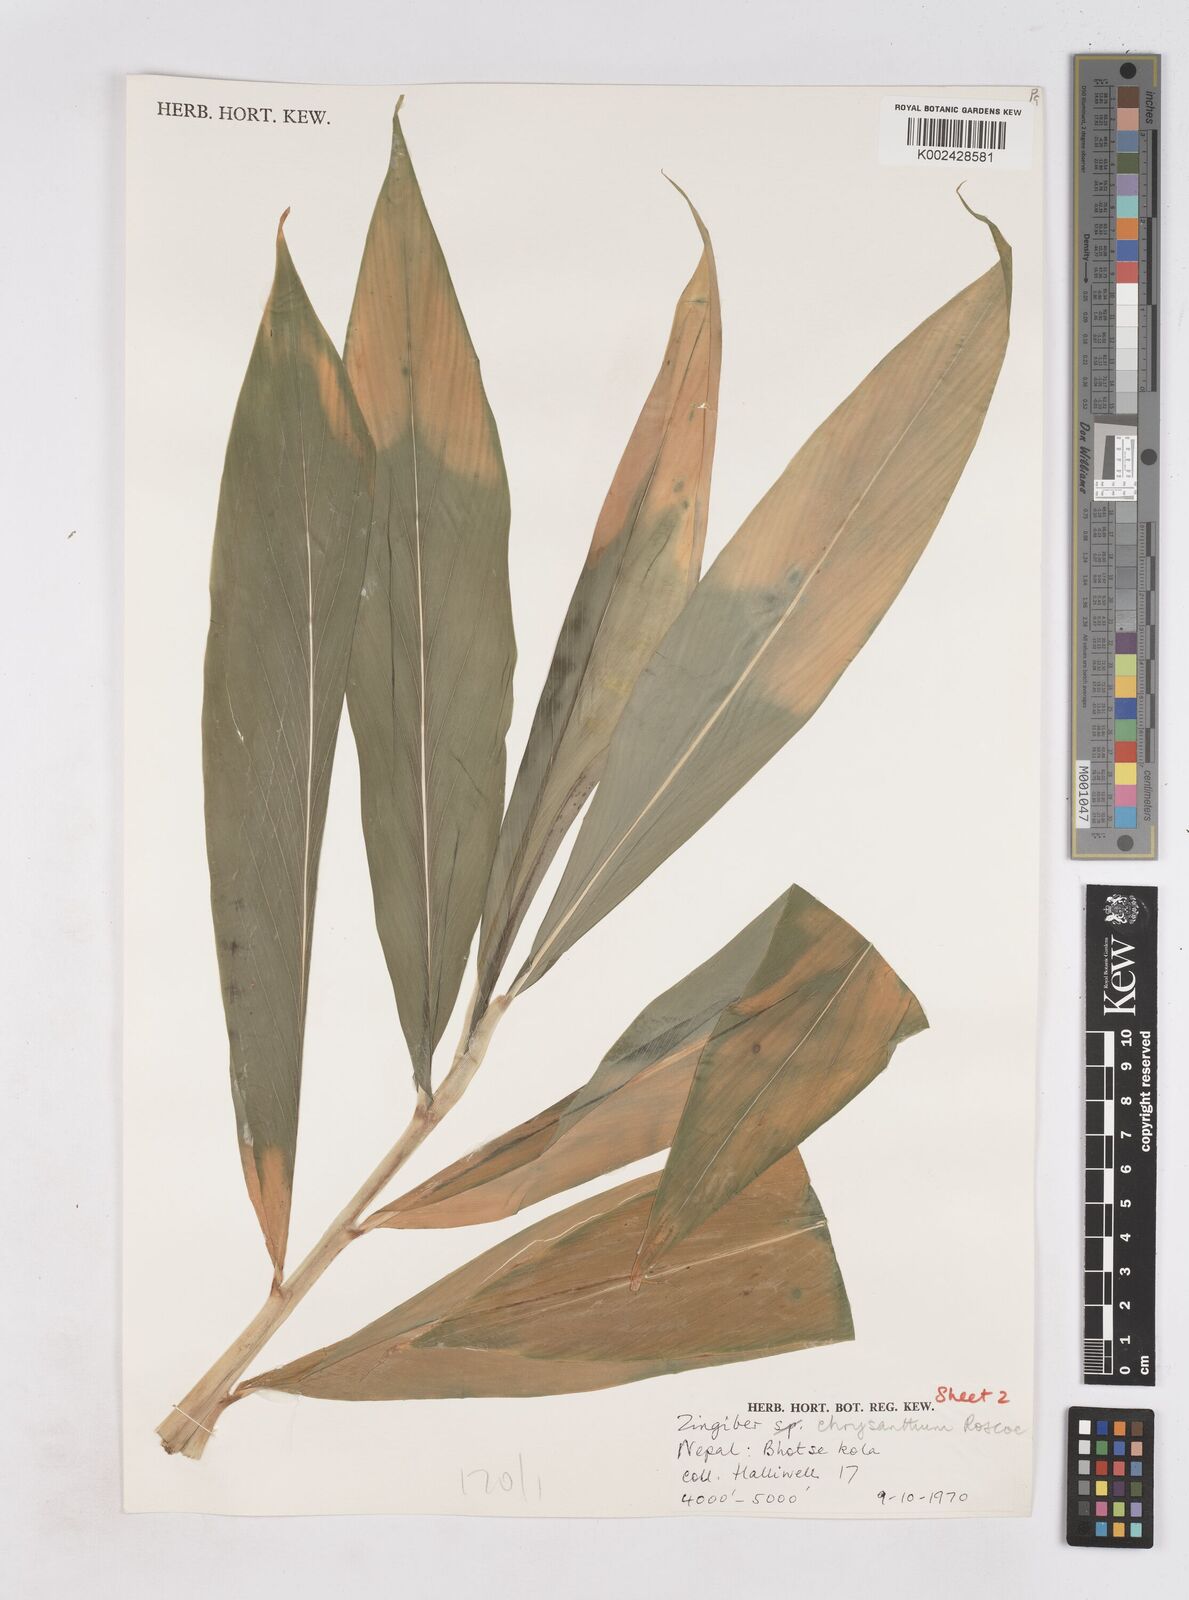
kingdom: Plantae
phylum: Tracheophyta
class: Liliopsida
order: Zingiberales
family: Zingiberaceae
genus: Zingiber
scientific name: Zingiber chrysanthum
